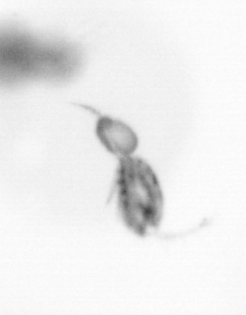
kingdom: Animalia
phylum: Arthropoda
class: Copepoda
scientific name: Copepoda
